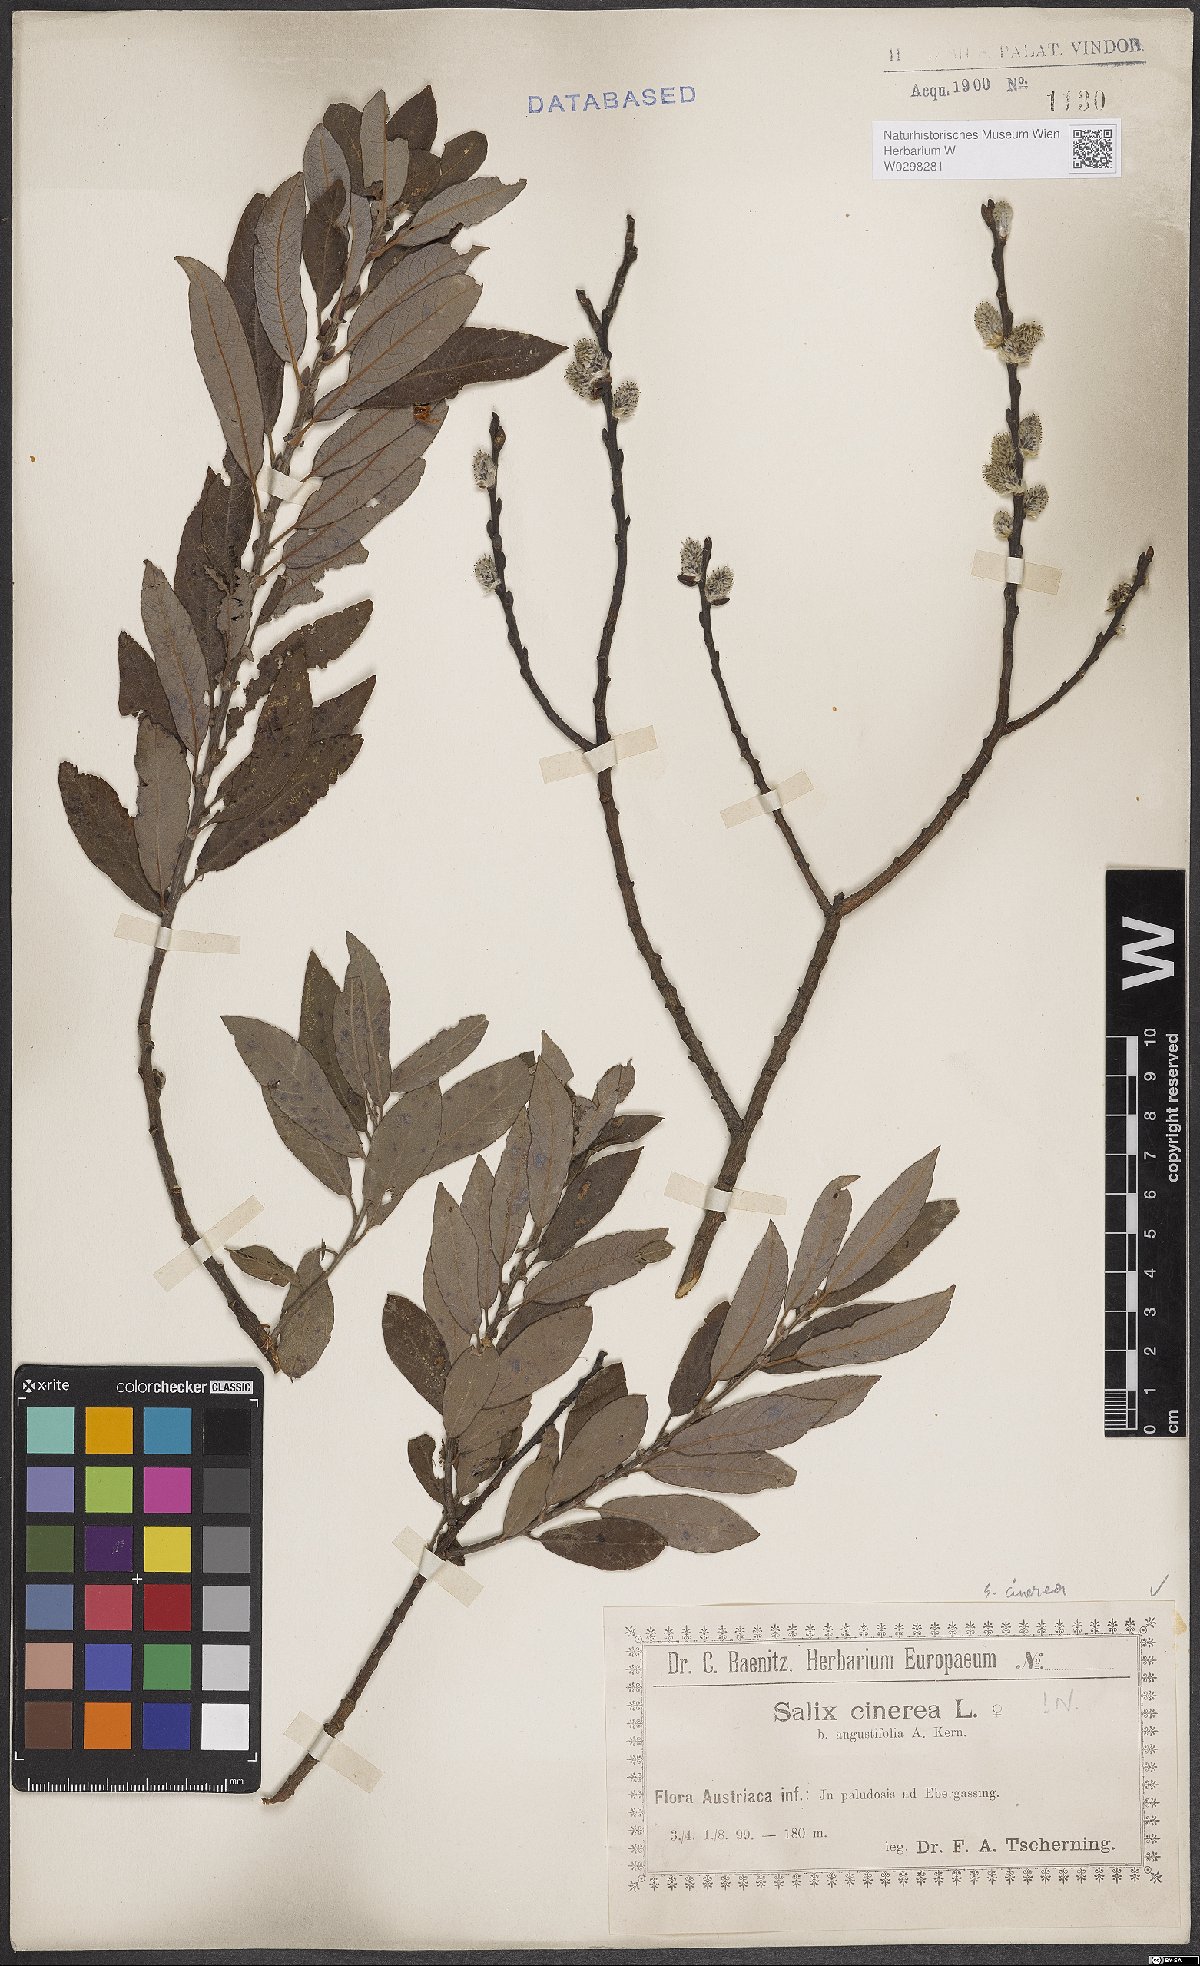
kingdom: Plantae
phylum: Tracheophyta
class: Magnoliopsida
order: Malpighiales
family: Salicaceae
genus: Salix
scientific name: Salix cinerea
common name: Common sallow
